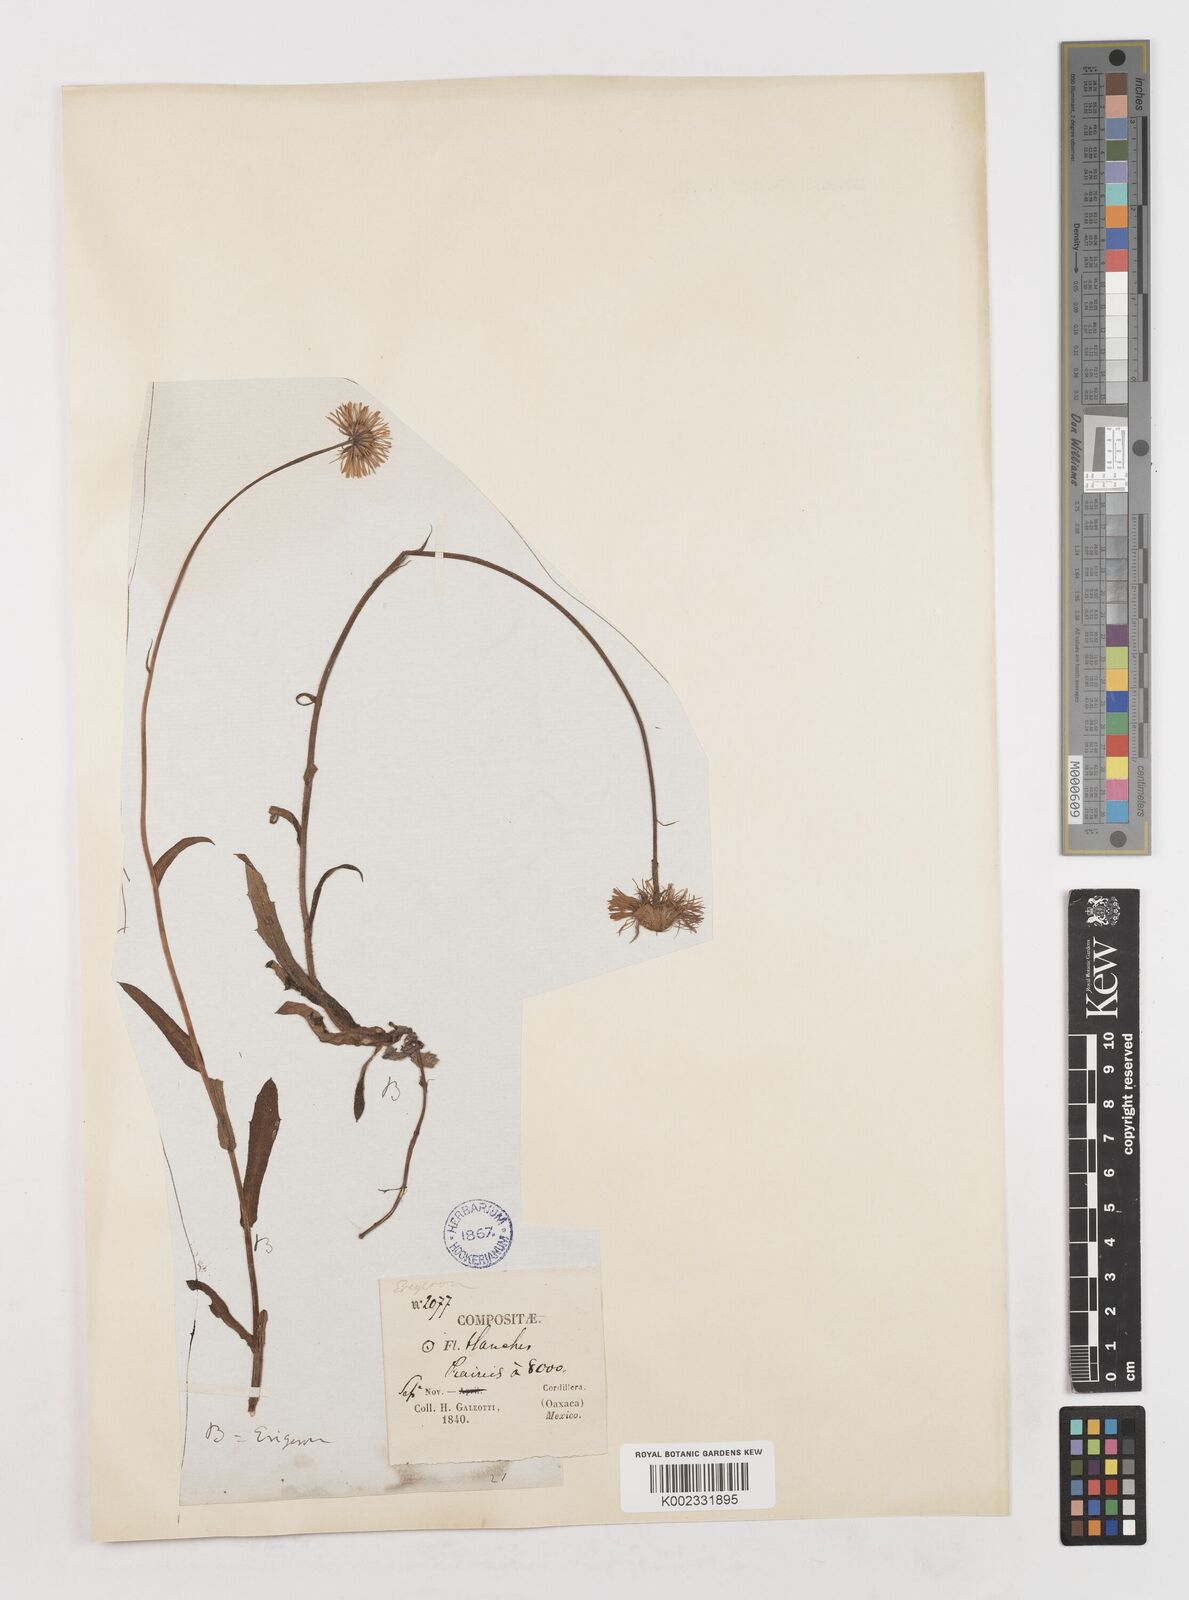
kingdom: Plantae
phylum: Tracheophyta
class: Magnoliopsida
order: Asterales
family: Asteraceae
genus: Erigeron
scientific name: Erigeron
